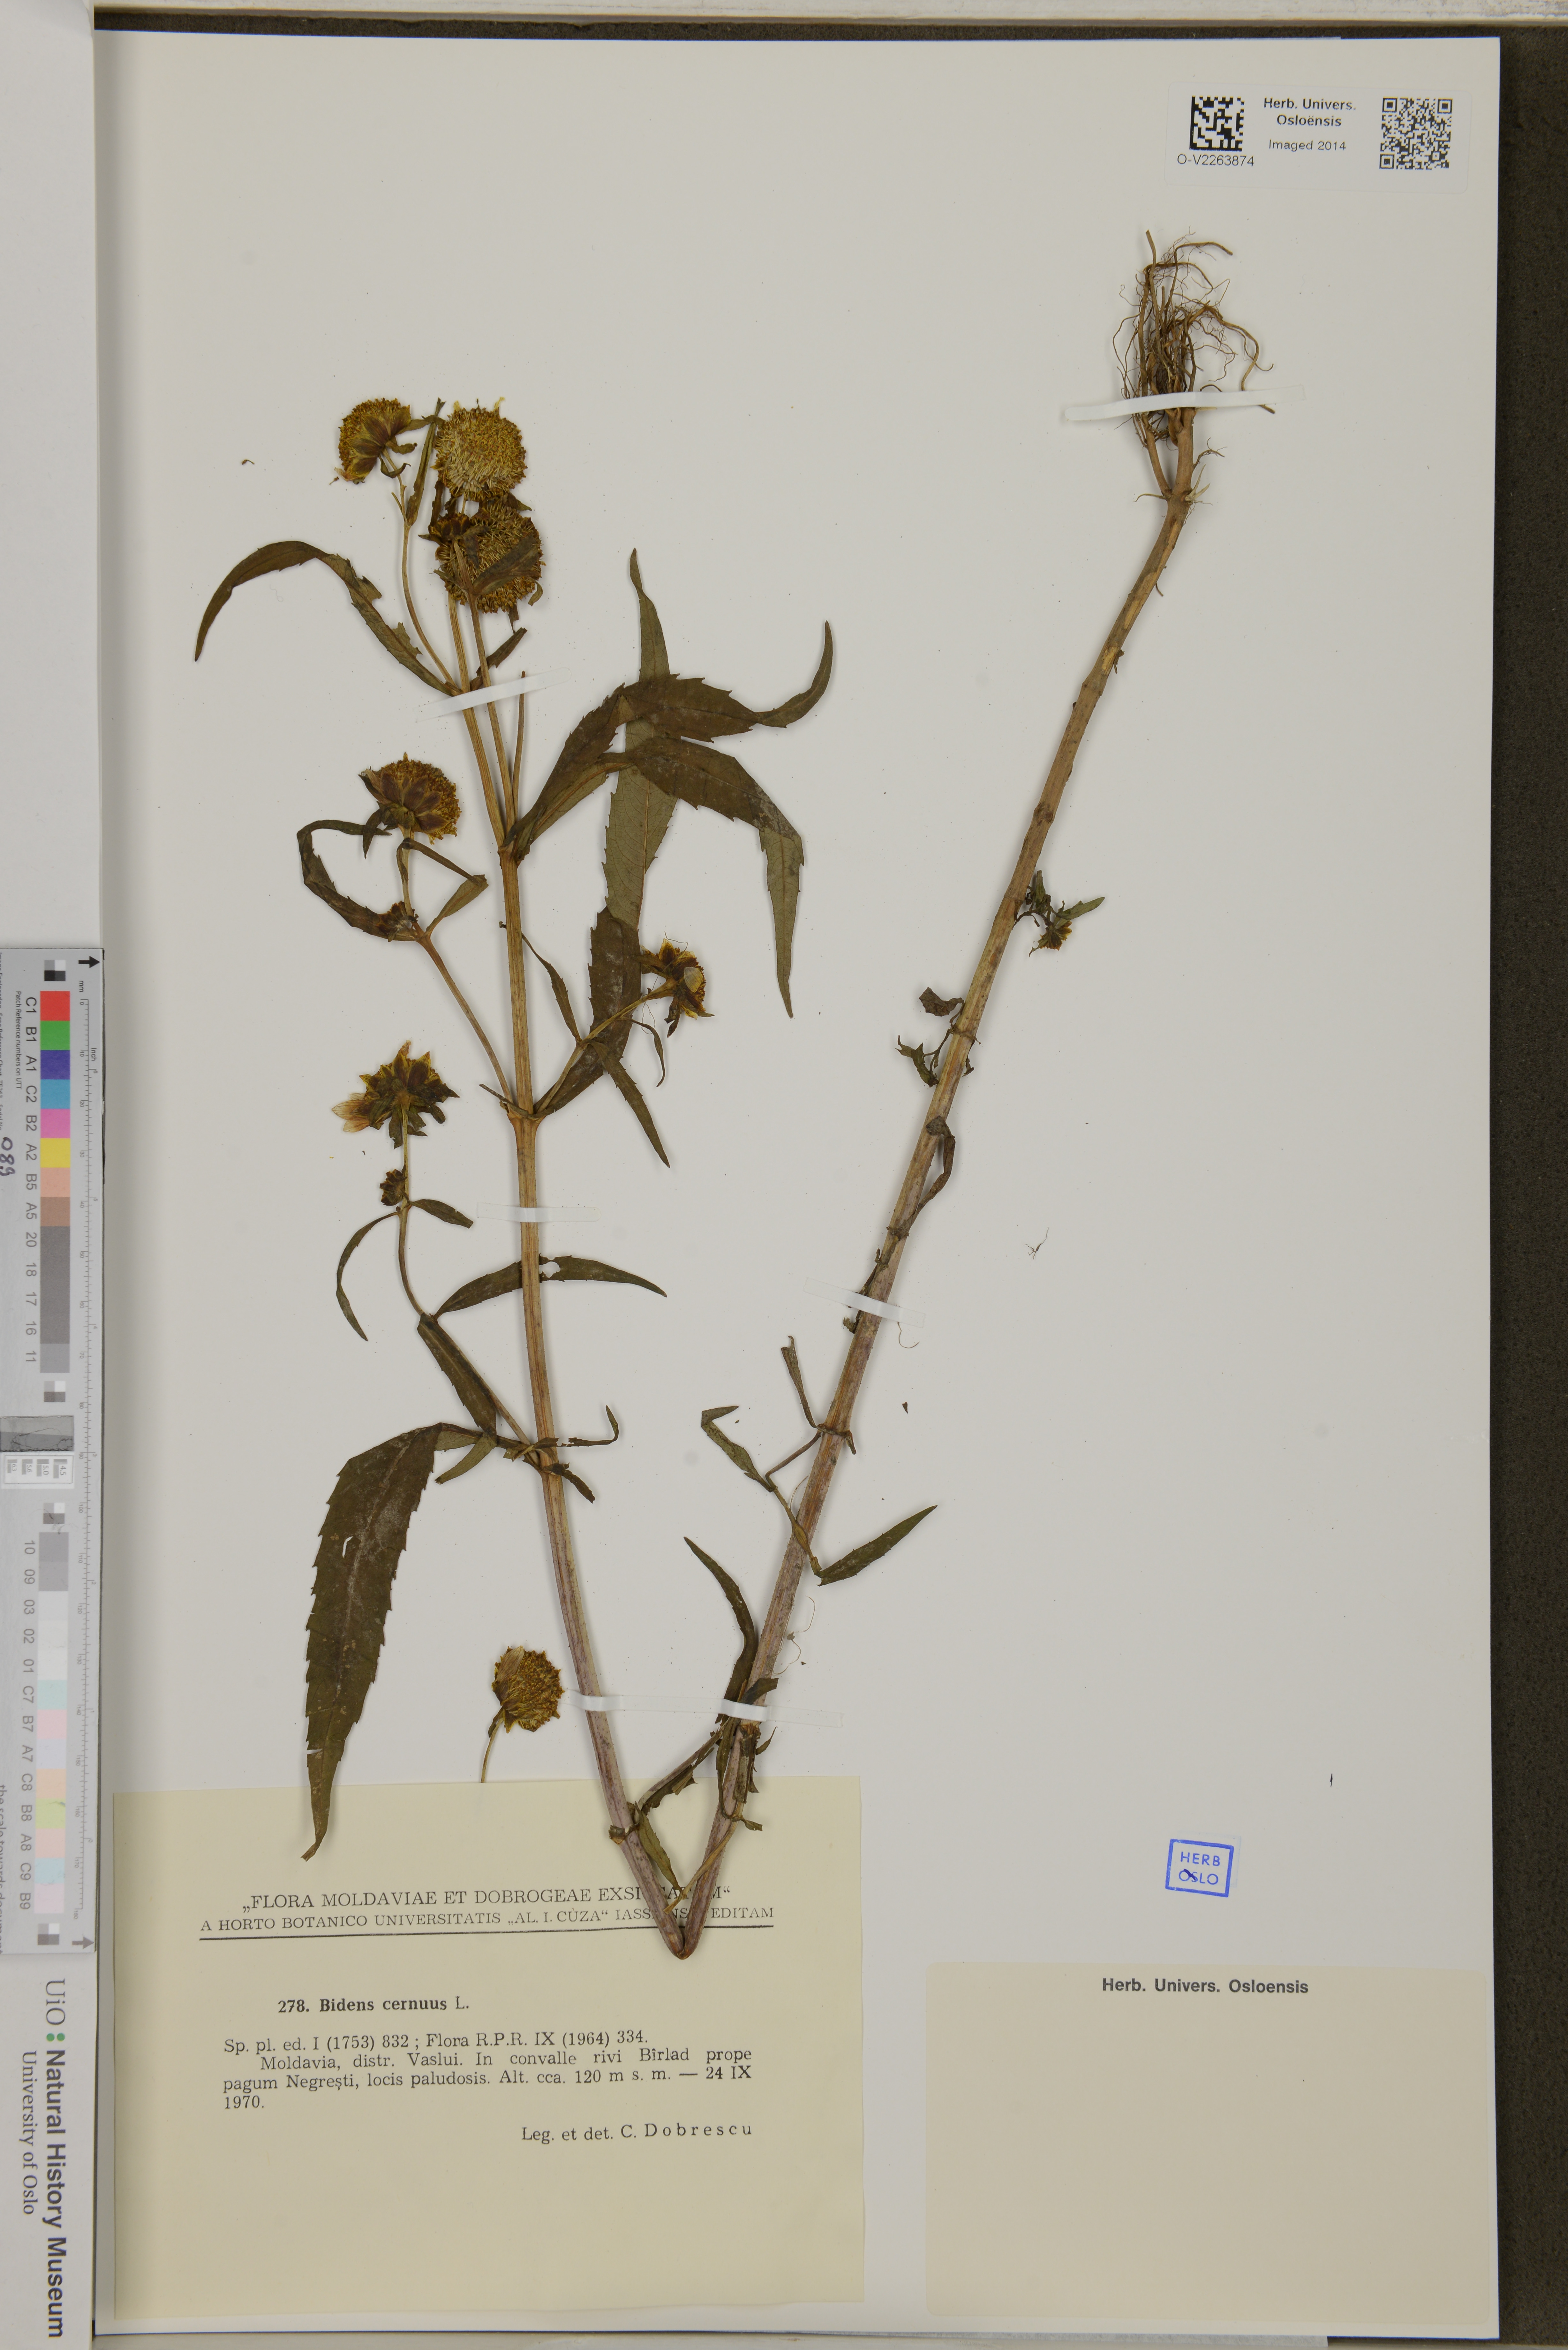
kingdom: Plantae
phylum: Tracheophyta
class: Magnoliopsida
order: Asterales
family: Asteraceae
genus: Bidens
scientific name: Bidens cernua
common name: Nodding bur-marigold
